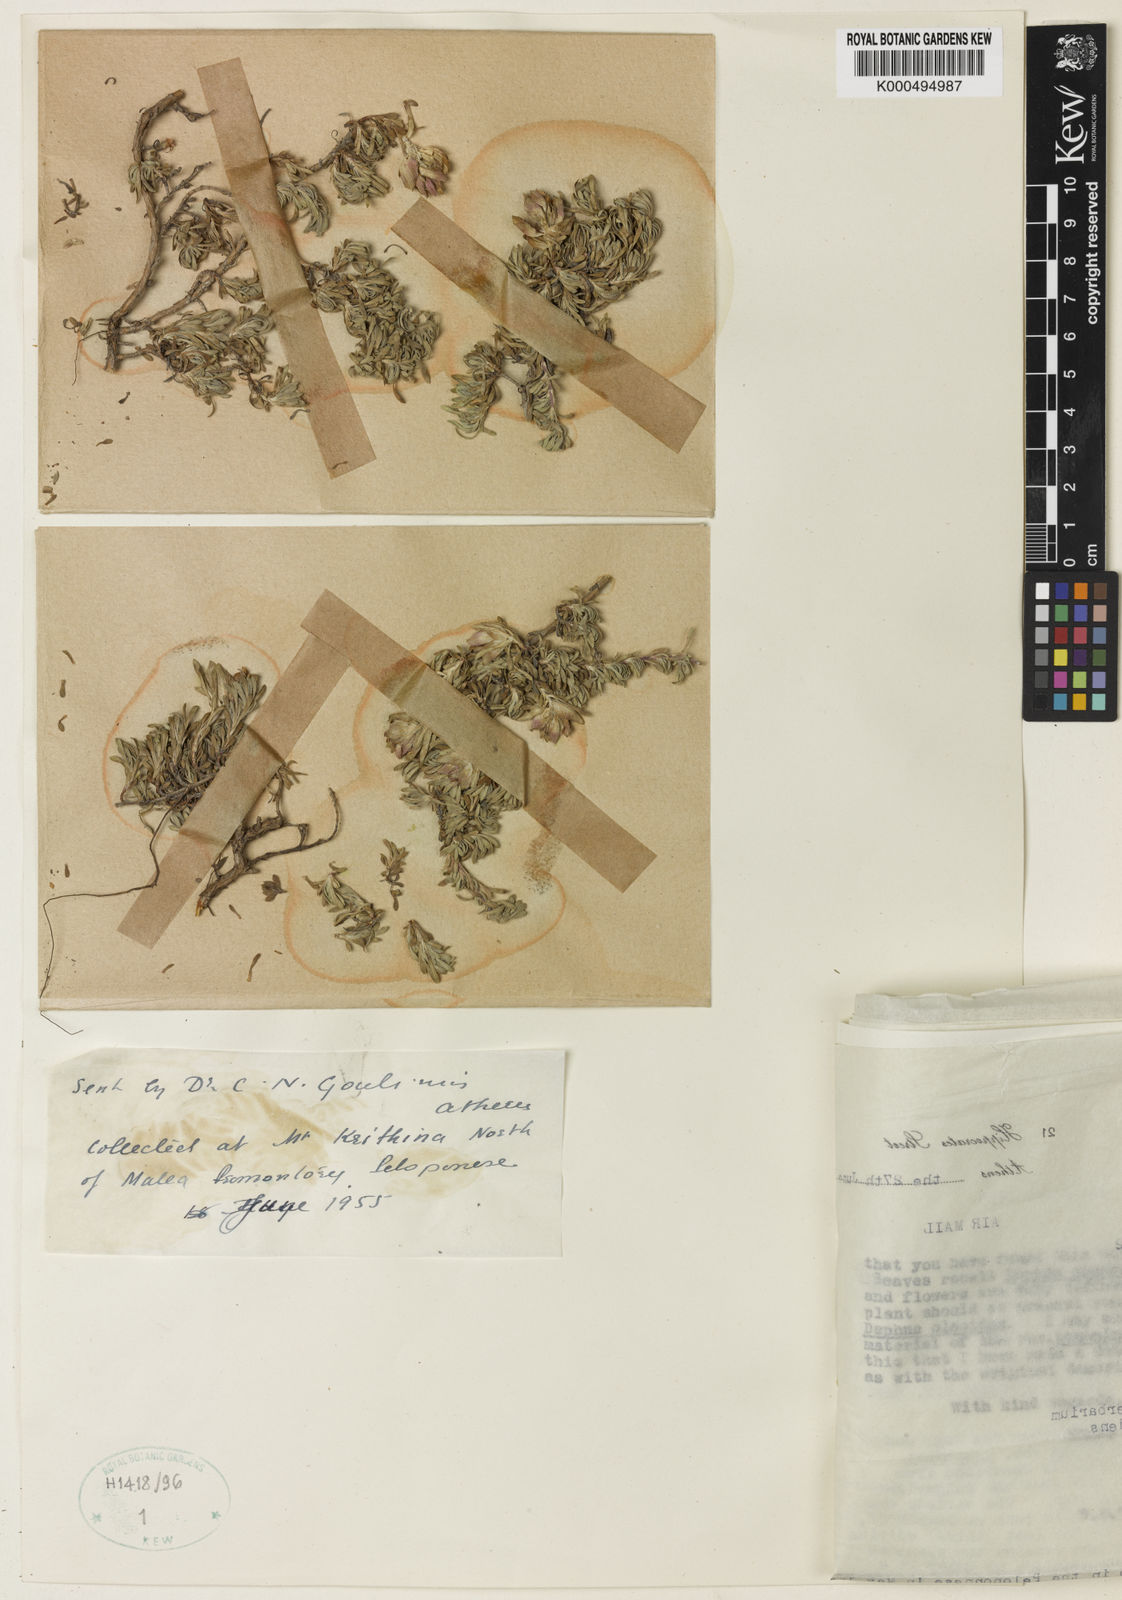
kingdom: Plantae
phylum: Tracheophyta
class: Magnoliopsida
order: Lamiales
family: Lamiaceae
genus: Thymus
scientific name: Thymus laconicus
